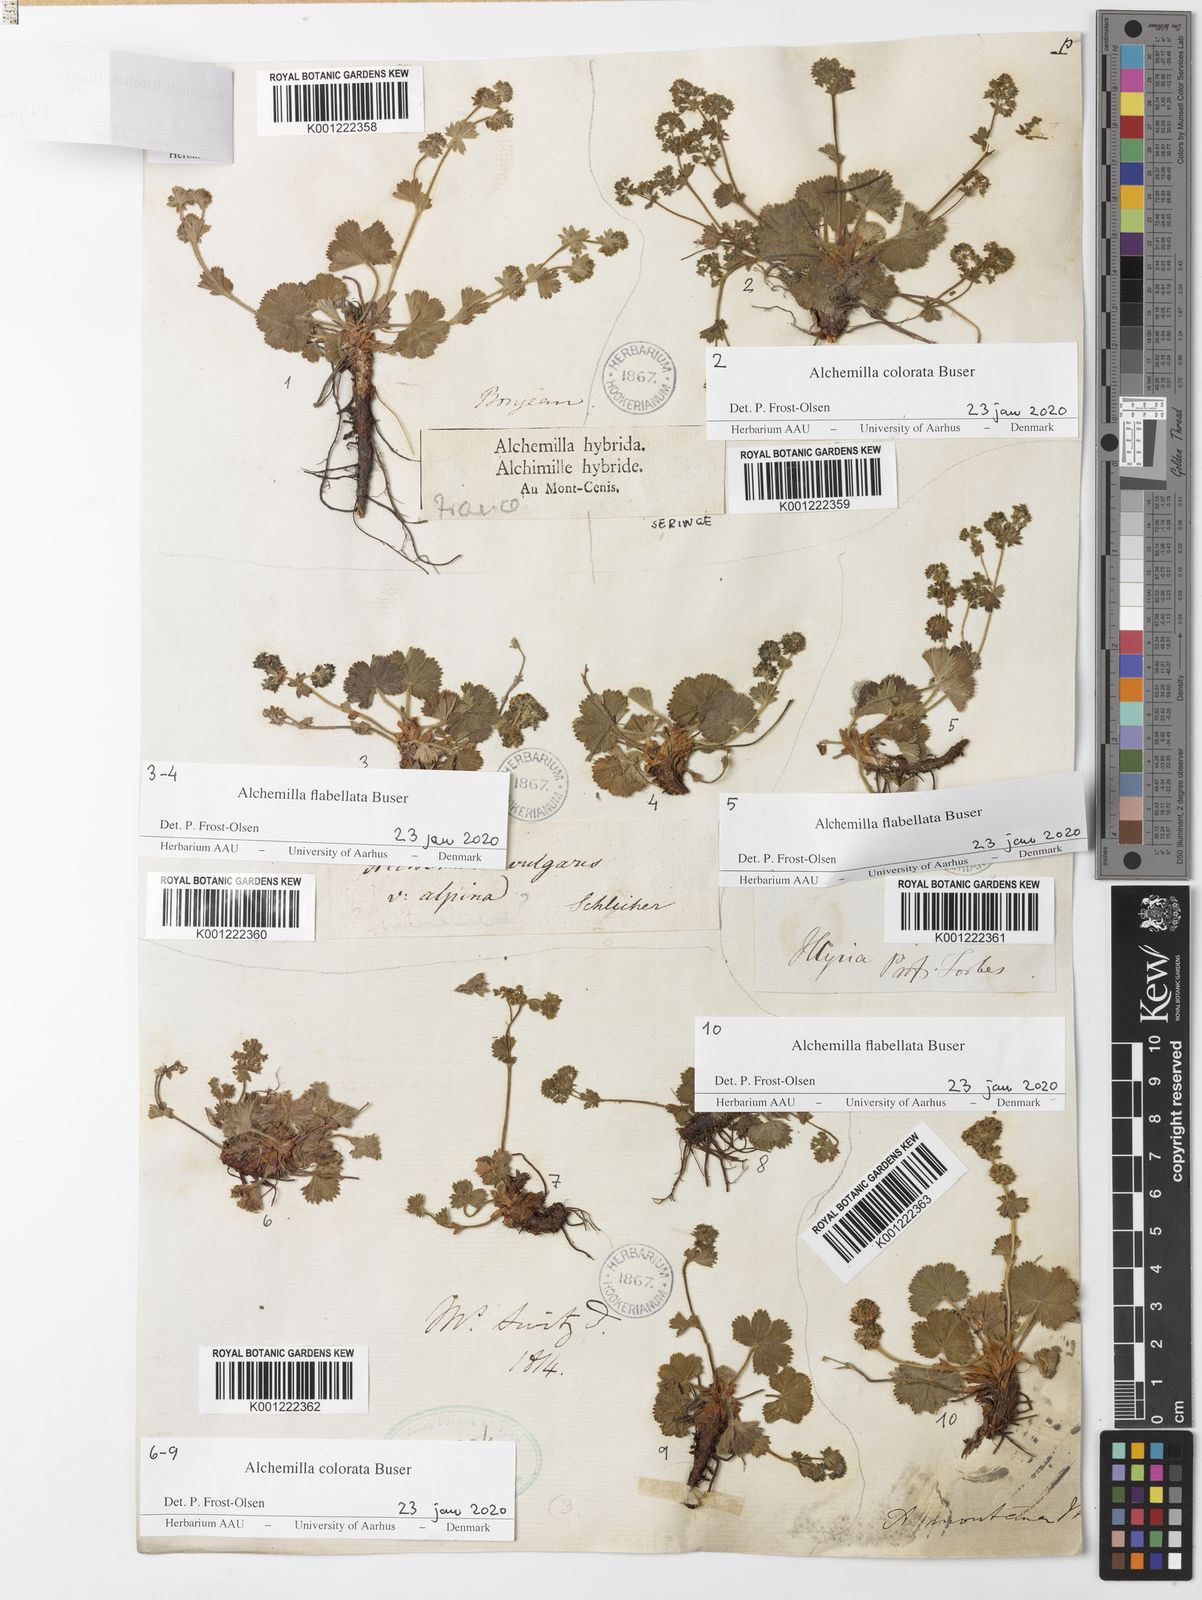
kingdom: Plantae
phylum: Tracheophyta
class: Magnoliopsida
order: Rosales
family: Rosaceae
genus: Alchemilla
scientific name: Alchemilla flabellata
